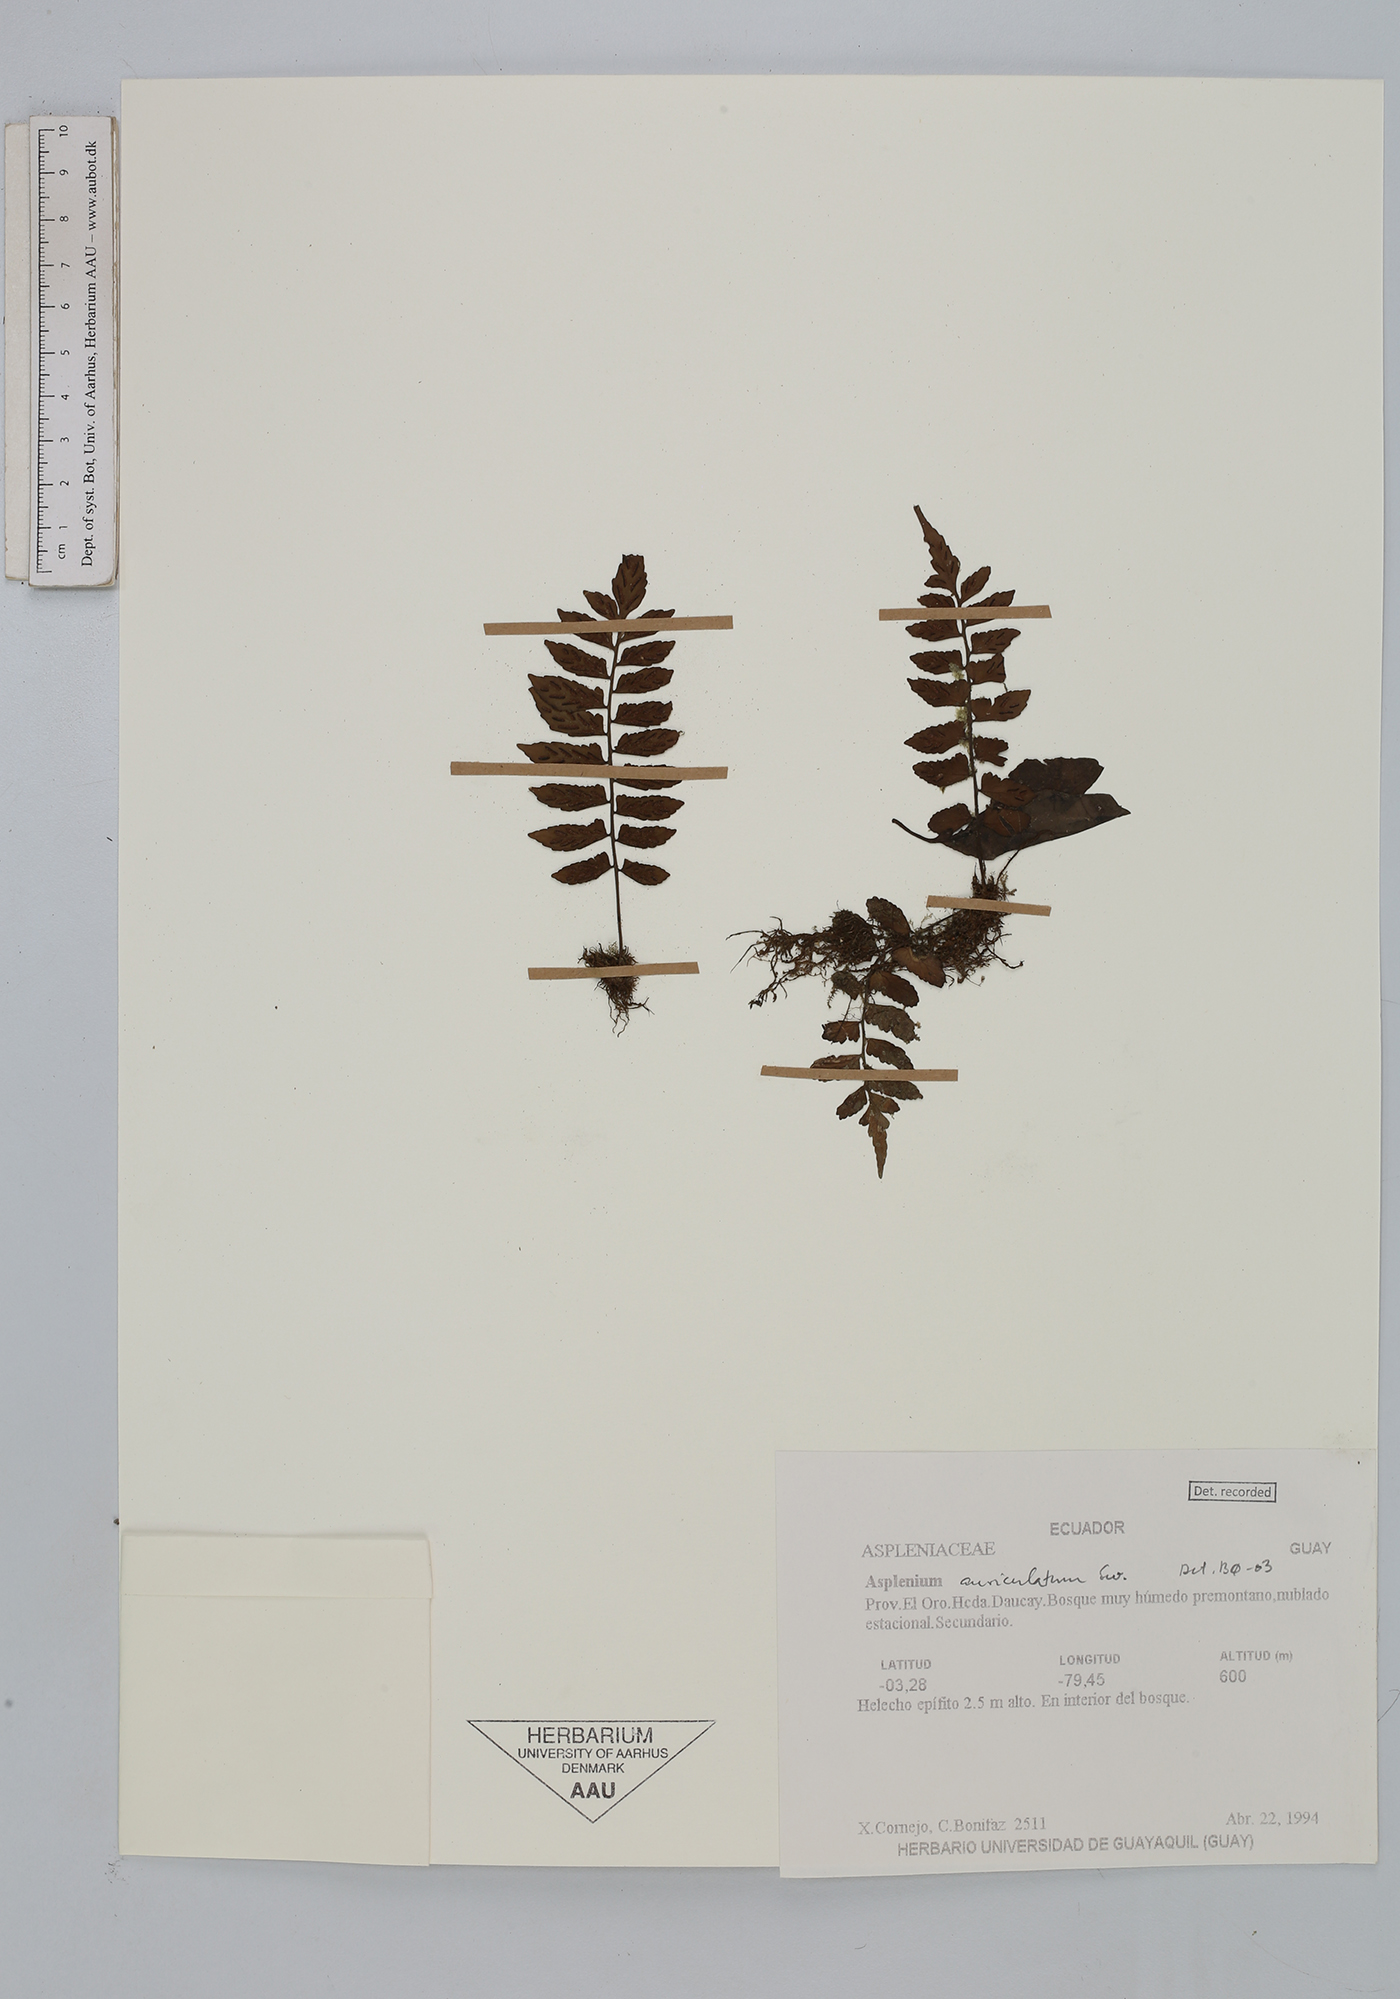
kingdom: Plantae
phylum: Tracheophyta
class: Polypodiopsida
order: Polypodiales
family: Aspleniaceae
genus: Asplenium
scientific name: Asplenium auriculatum
